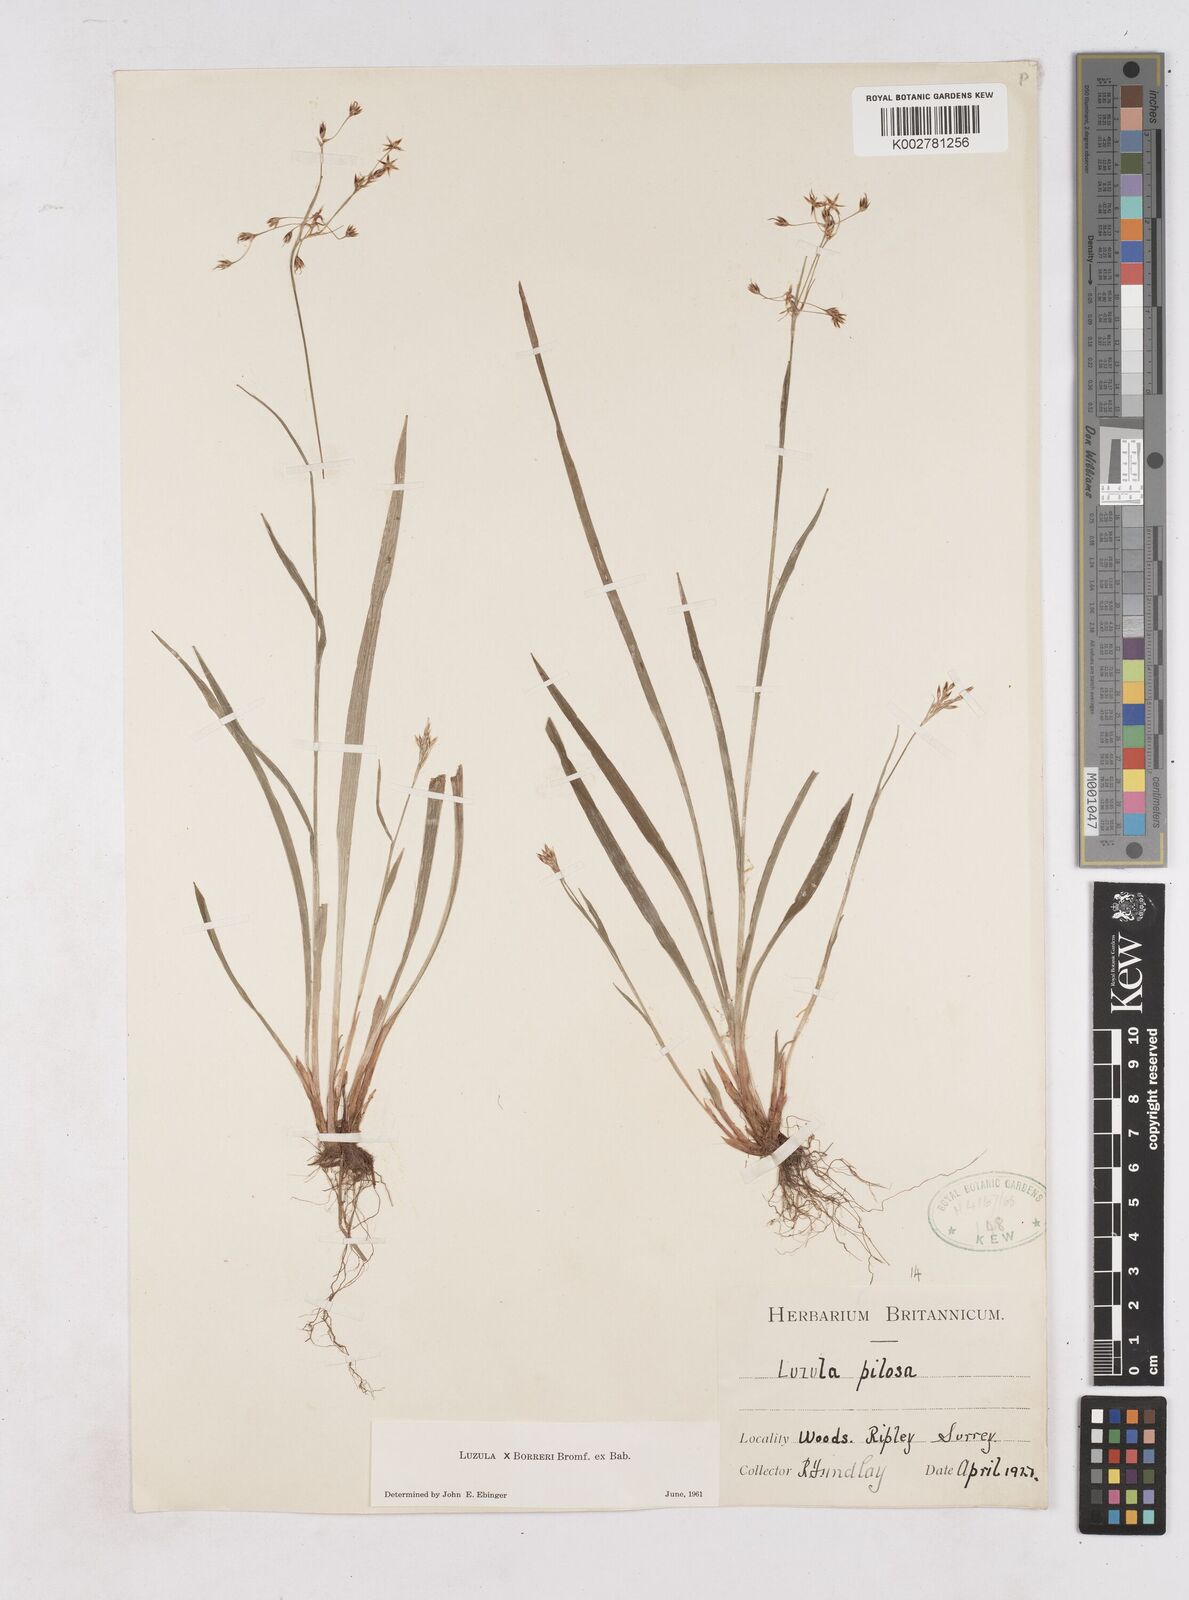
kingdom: Plantae
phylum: Tracheophyta
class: Liliopsida
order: Poales
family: Juncaceae
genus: Luzula
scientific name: Luzula forsteri
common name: Southern wood-rush
